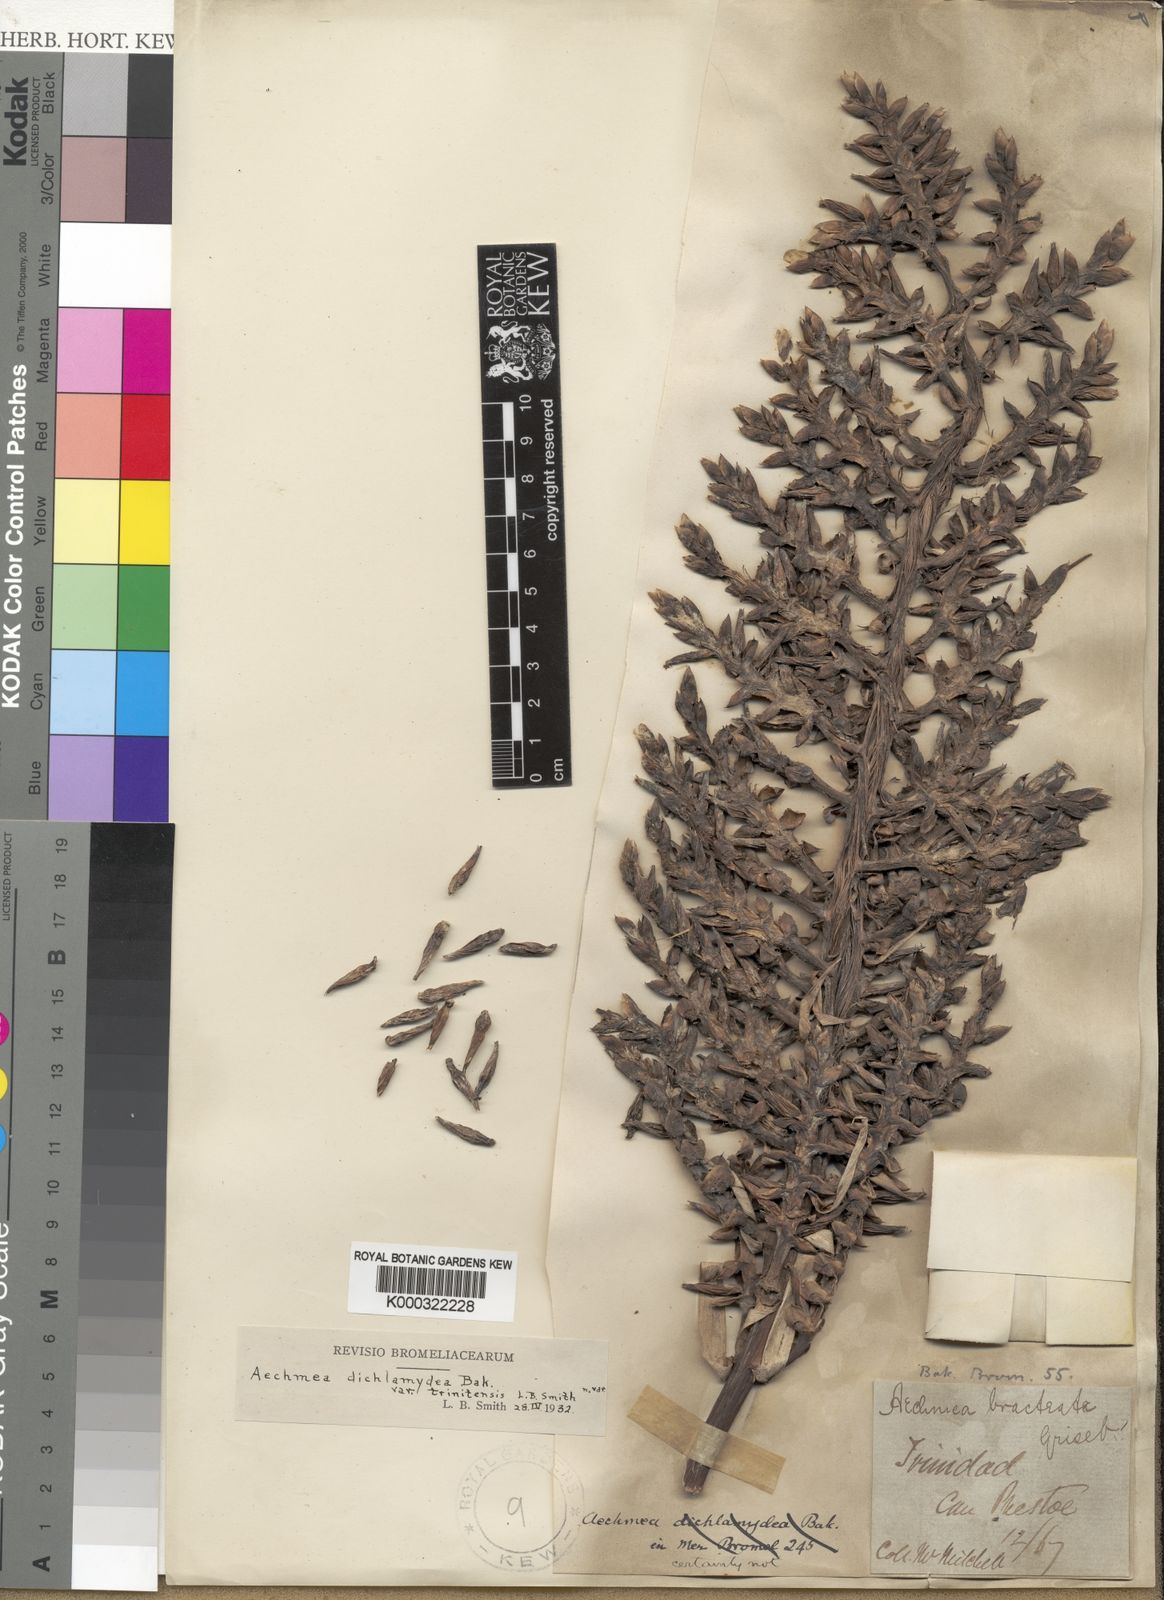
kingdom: Plantae
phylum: Tracheophyta
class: Liliopsida
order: Poales
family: Bromeliaceae
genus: Aechmea
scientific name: Aechmea dichlamydea
